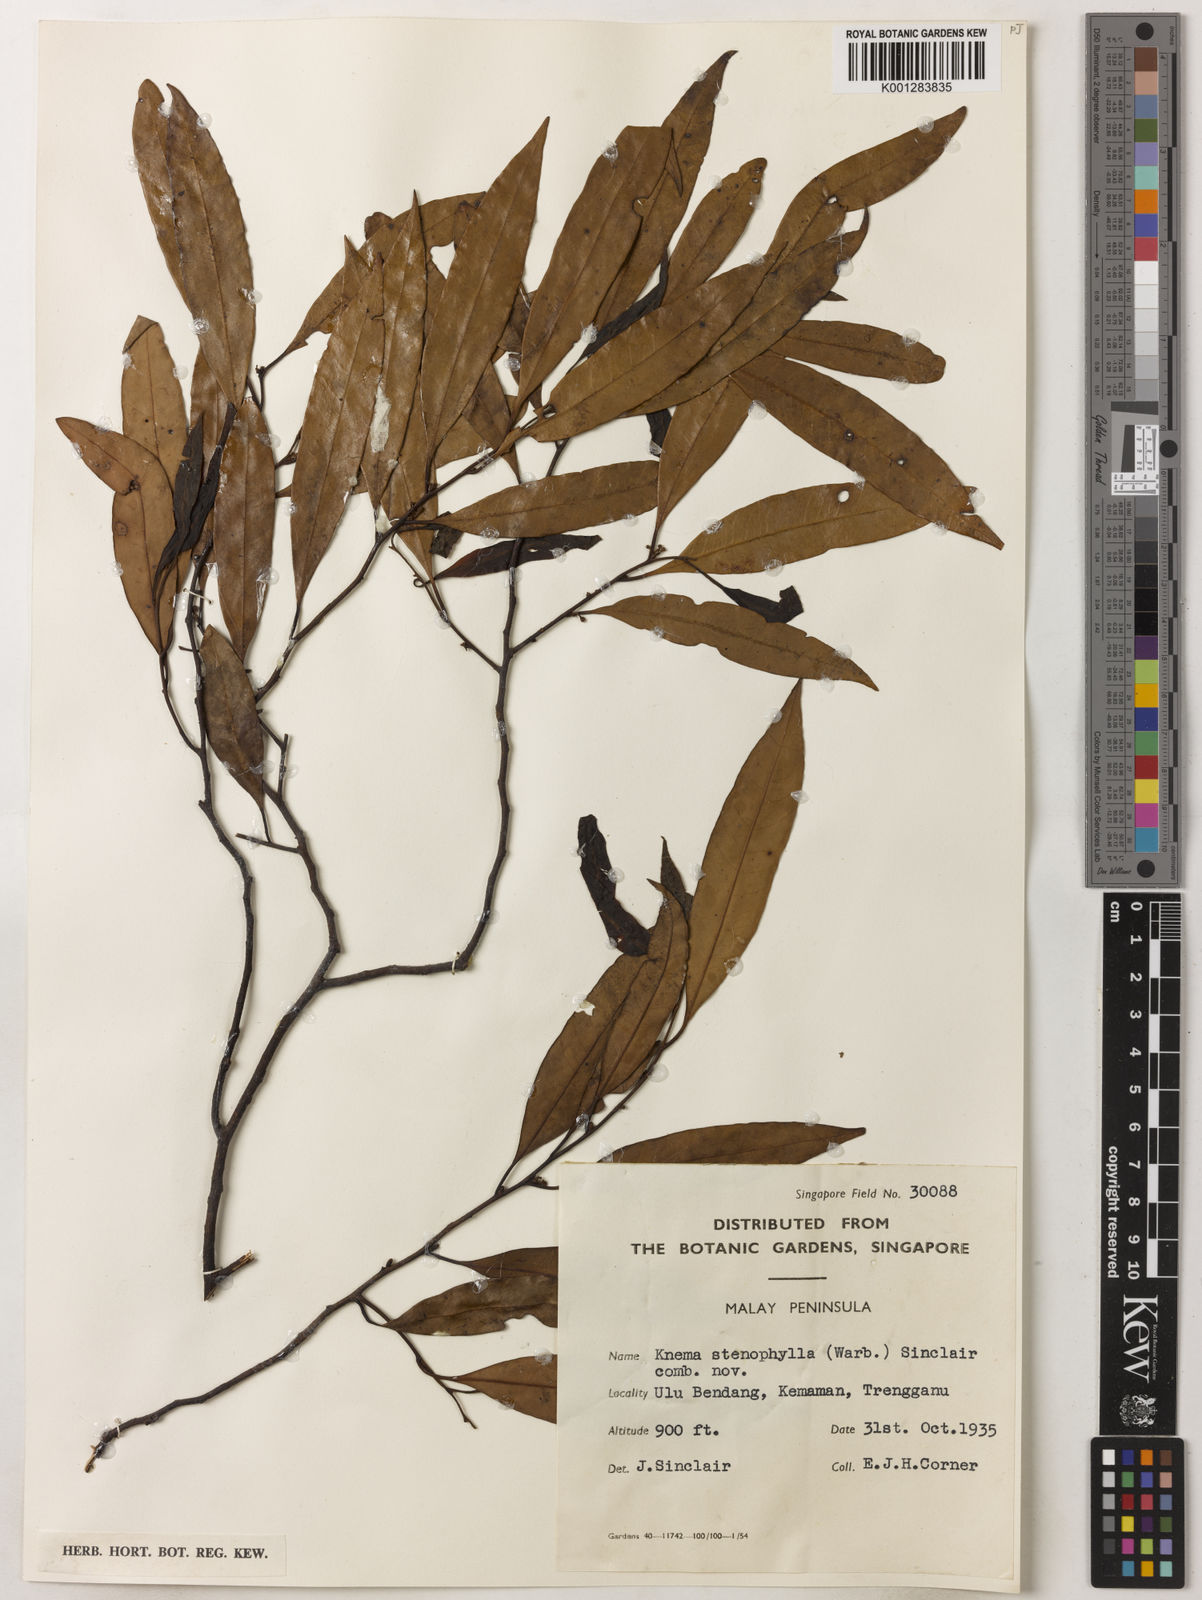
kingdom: Plantae
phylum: Tracheophyta
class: Magnoliopsida
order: Magnoliales
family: Myristicaceae
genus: Knema
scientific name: Knema stenophylla
